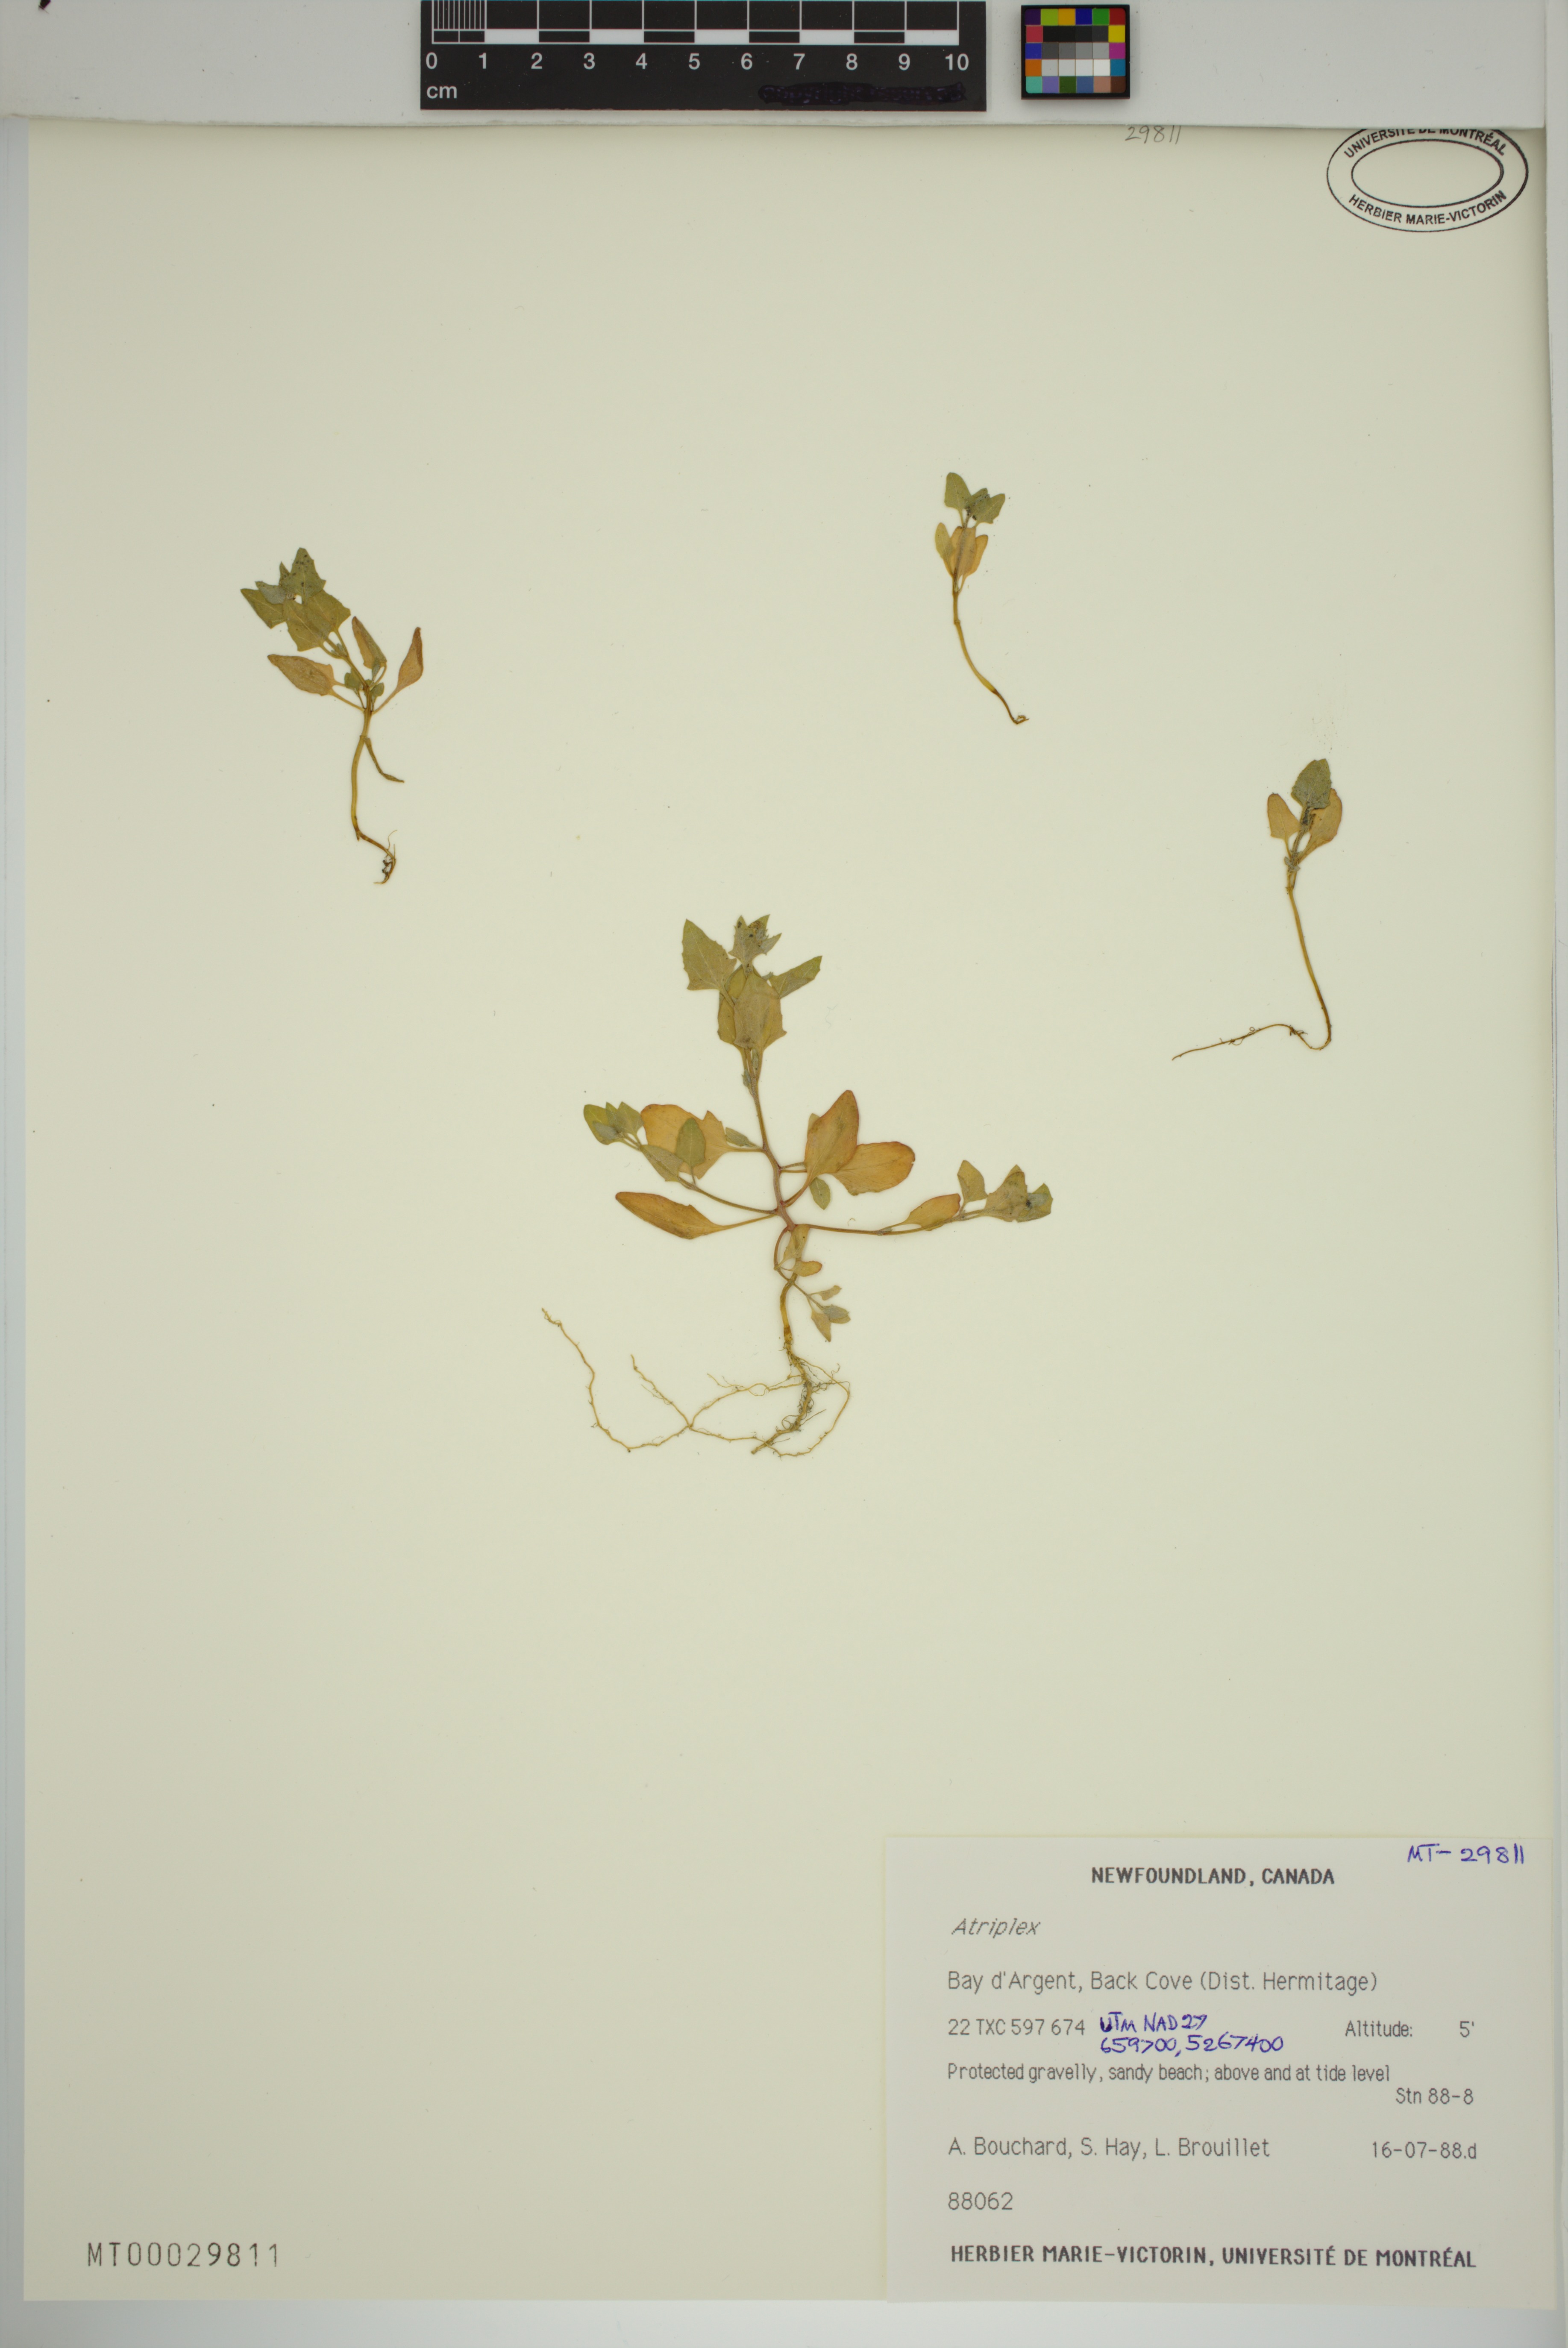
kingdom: Plantae
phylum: Tracheophyta
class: Magnoliopsida
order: Caryophyllales
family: Amaranthaceae
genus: Atriplex
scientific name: Atriplex
